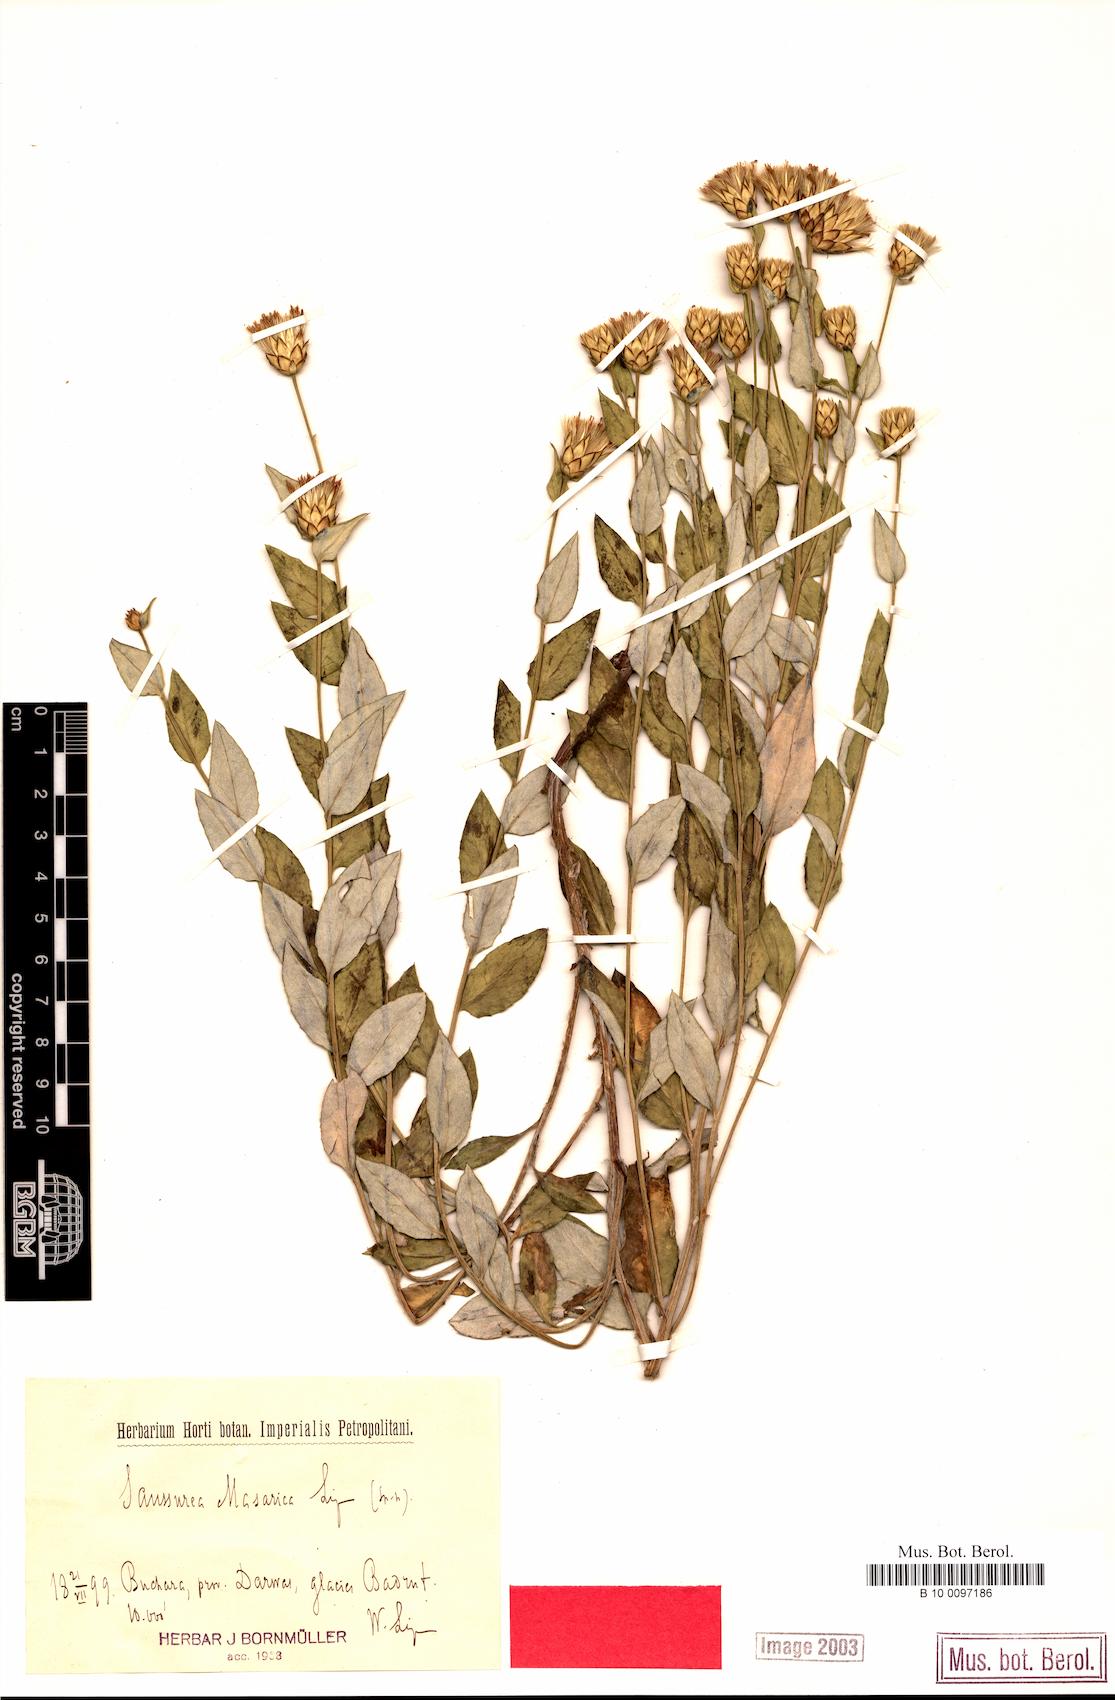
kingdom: Plantae
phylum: Tracheophyta
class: Magnoliopsida
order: Asterales
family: Asteraceae
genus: Shangwua
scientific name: Shangwua masarica
